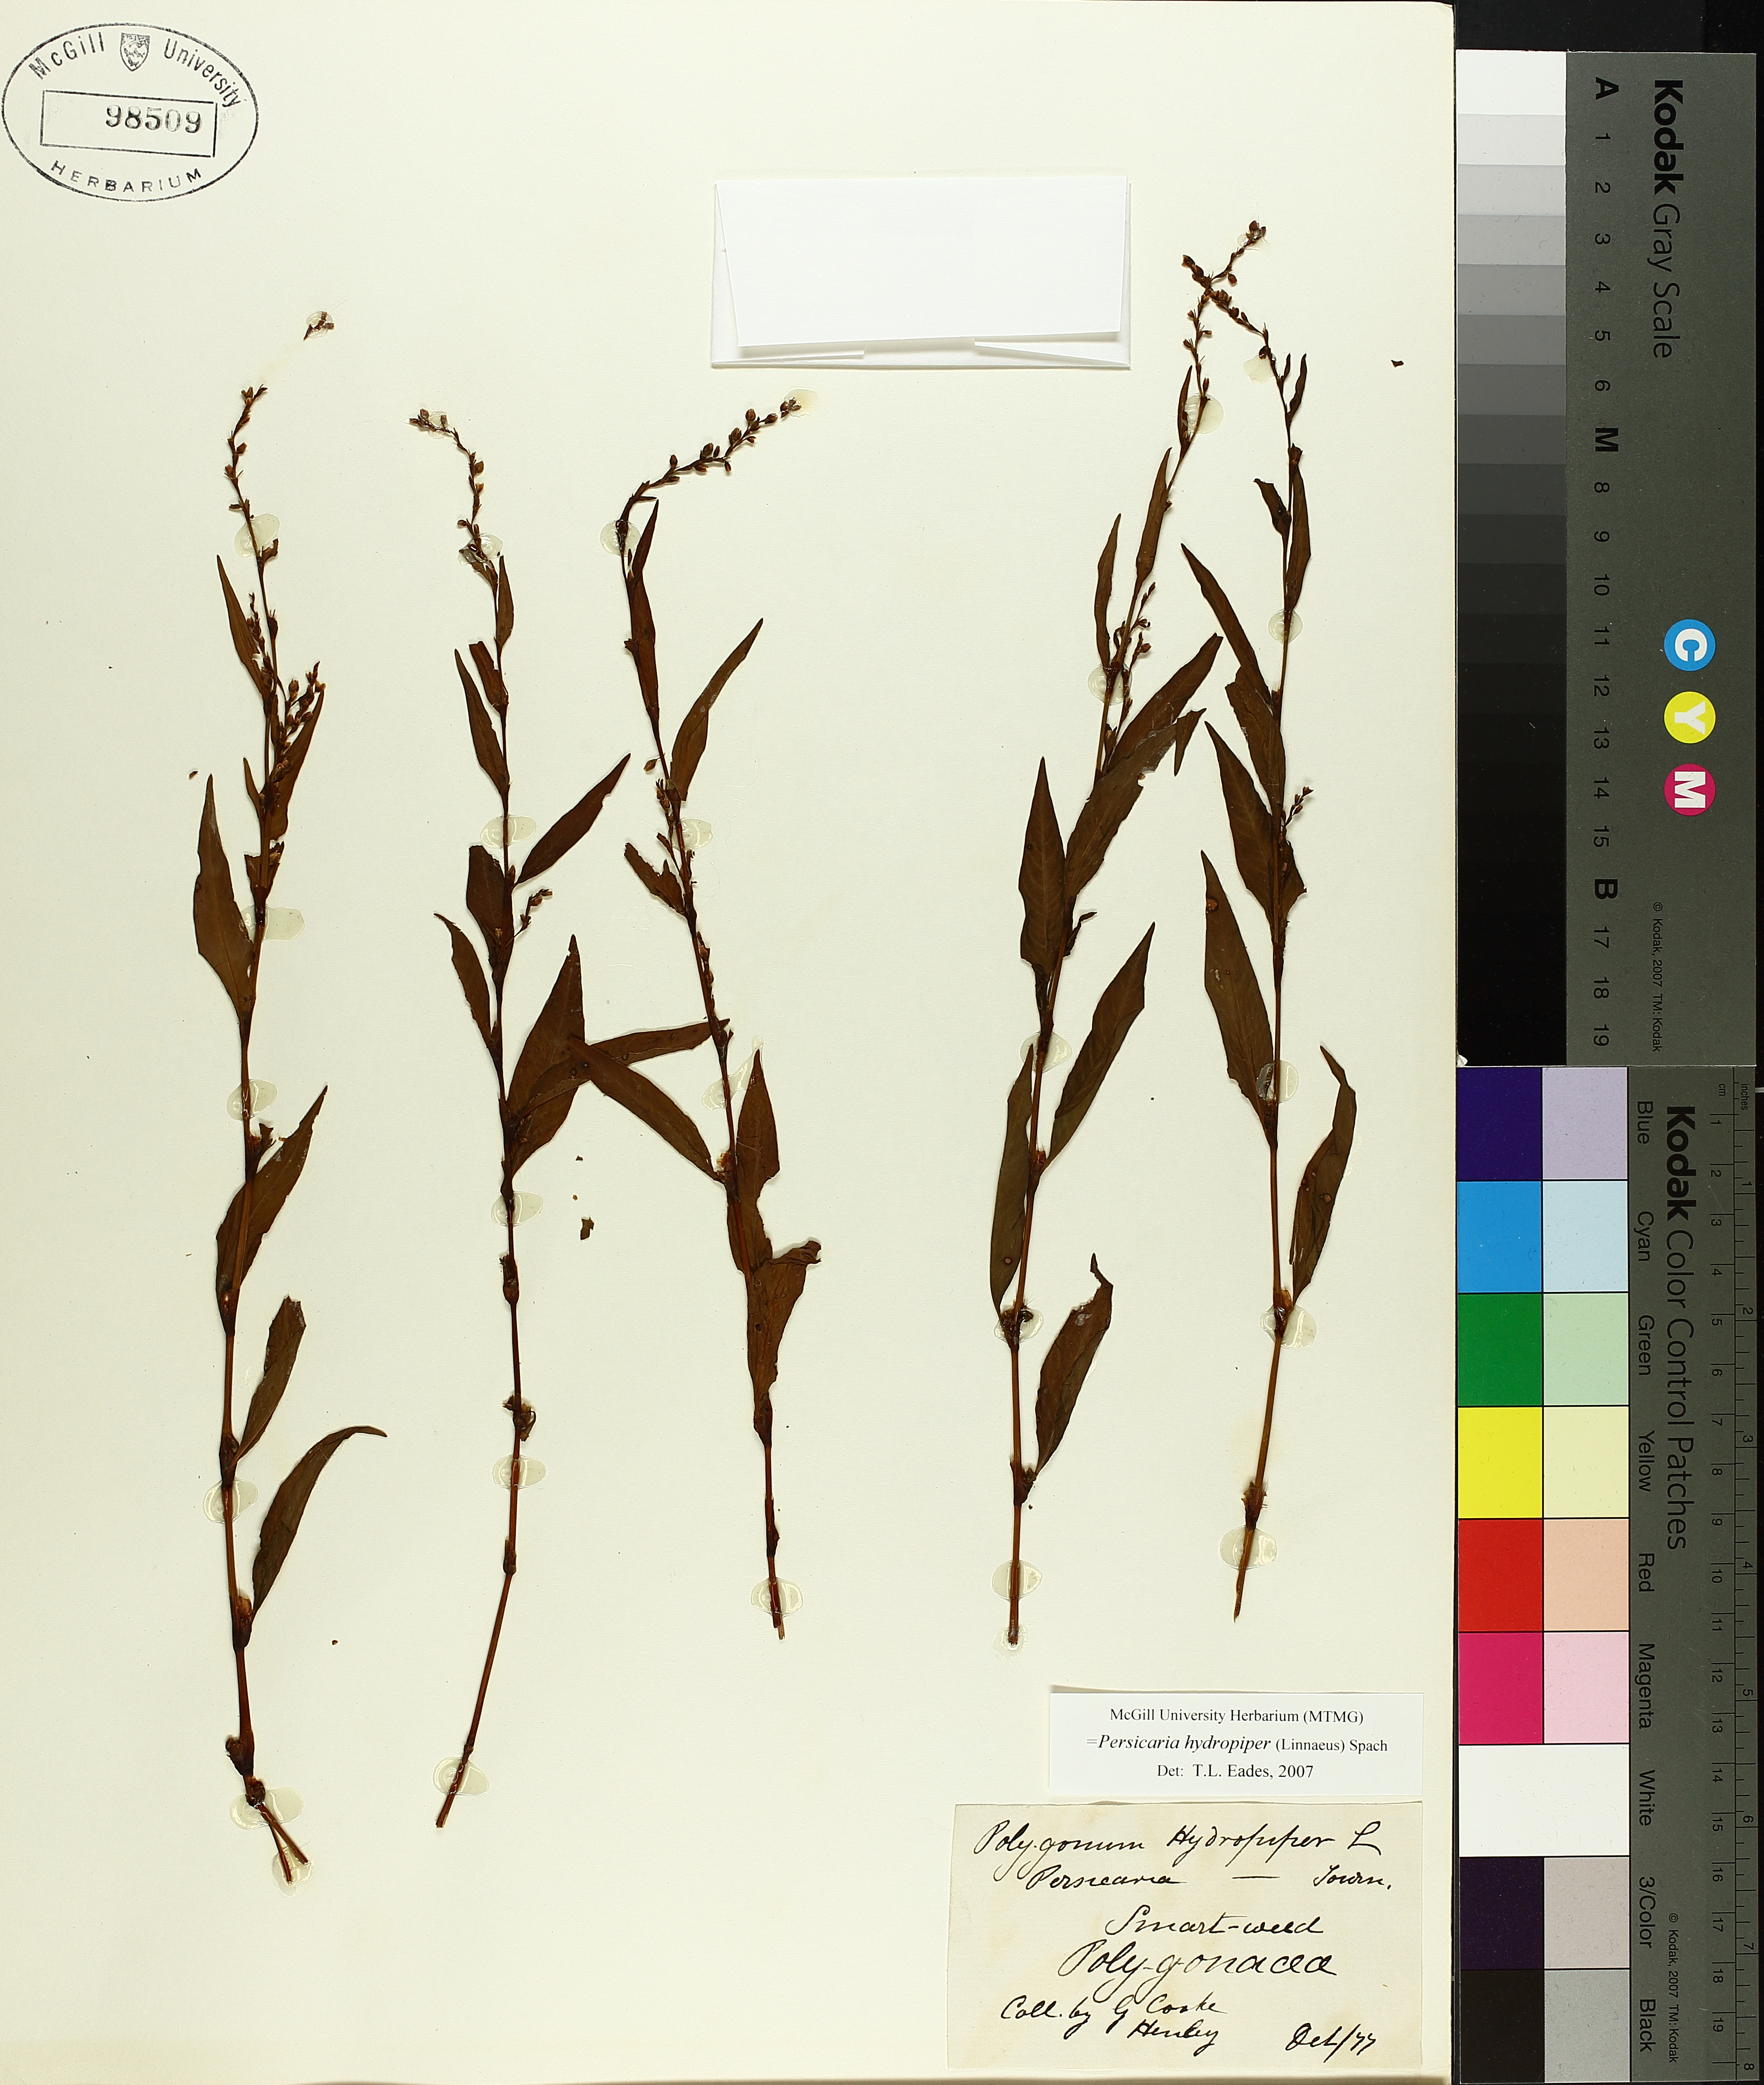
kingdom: Plantae
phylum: Tracheophyta
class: Magnoliopsida
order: Caryophyllales
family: Polygonaceae
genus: Persicaria
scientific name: Persicaria hydropiper
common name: Water-pepper
